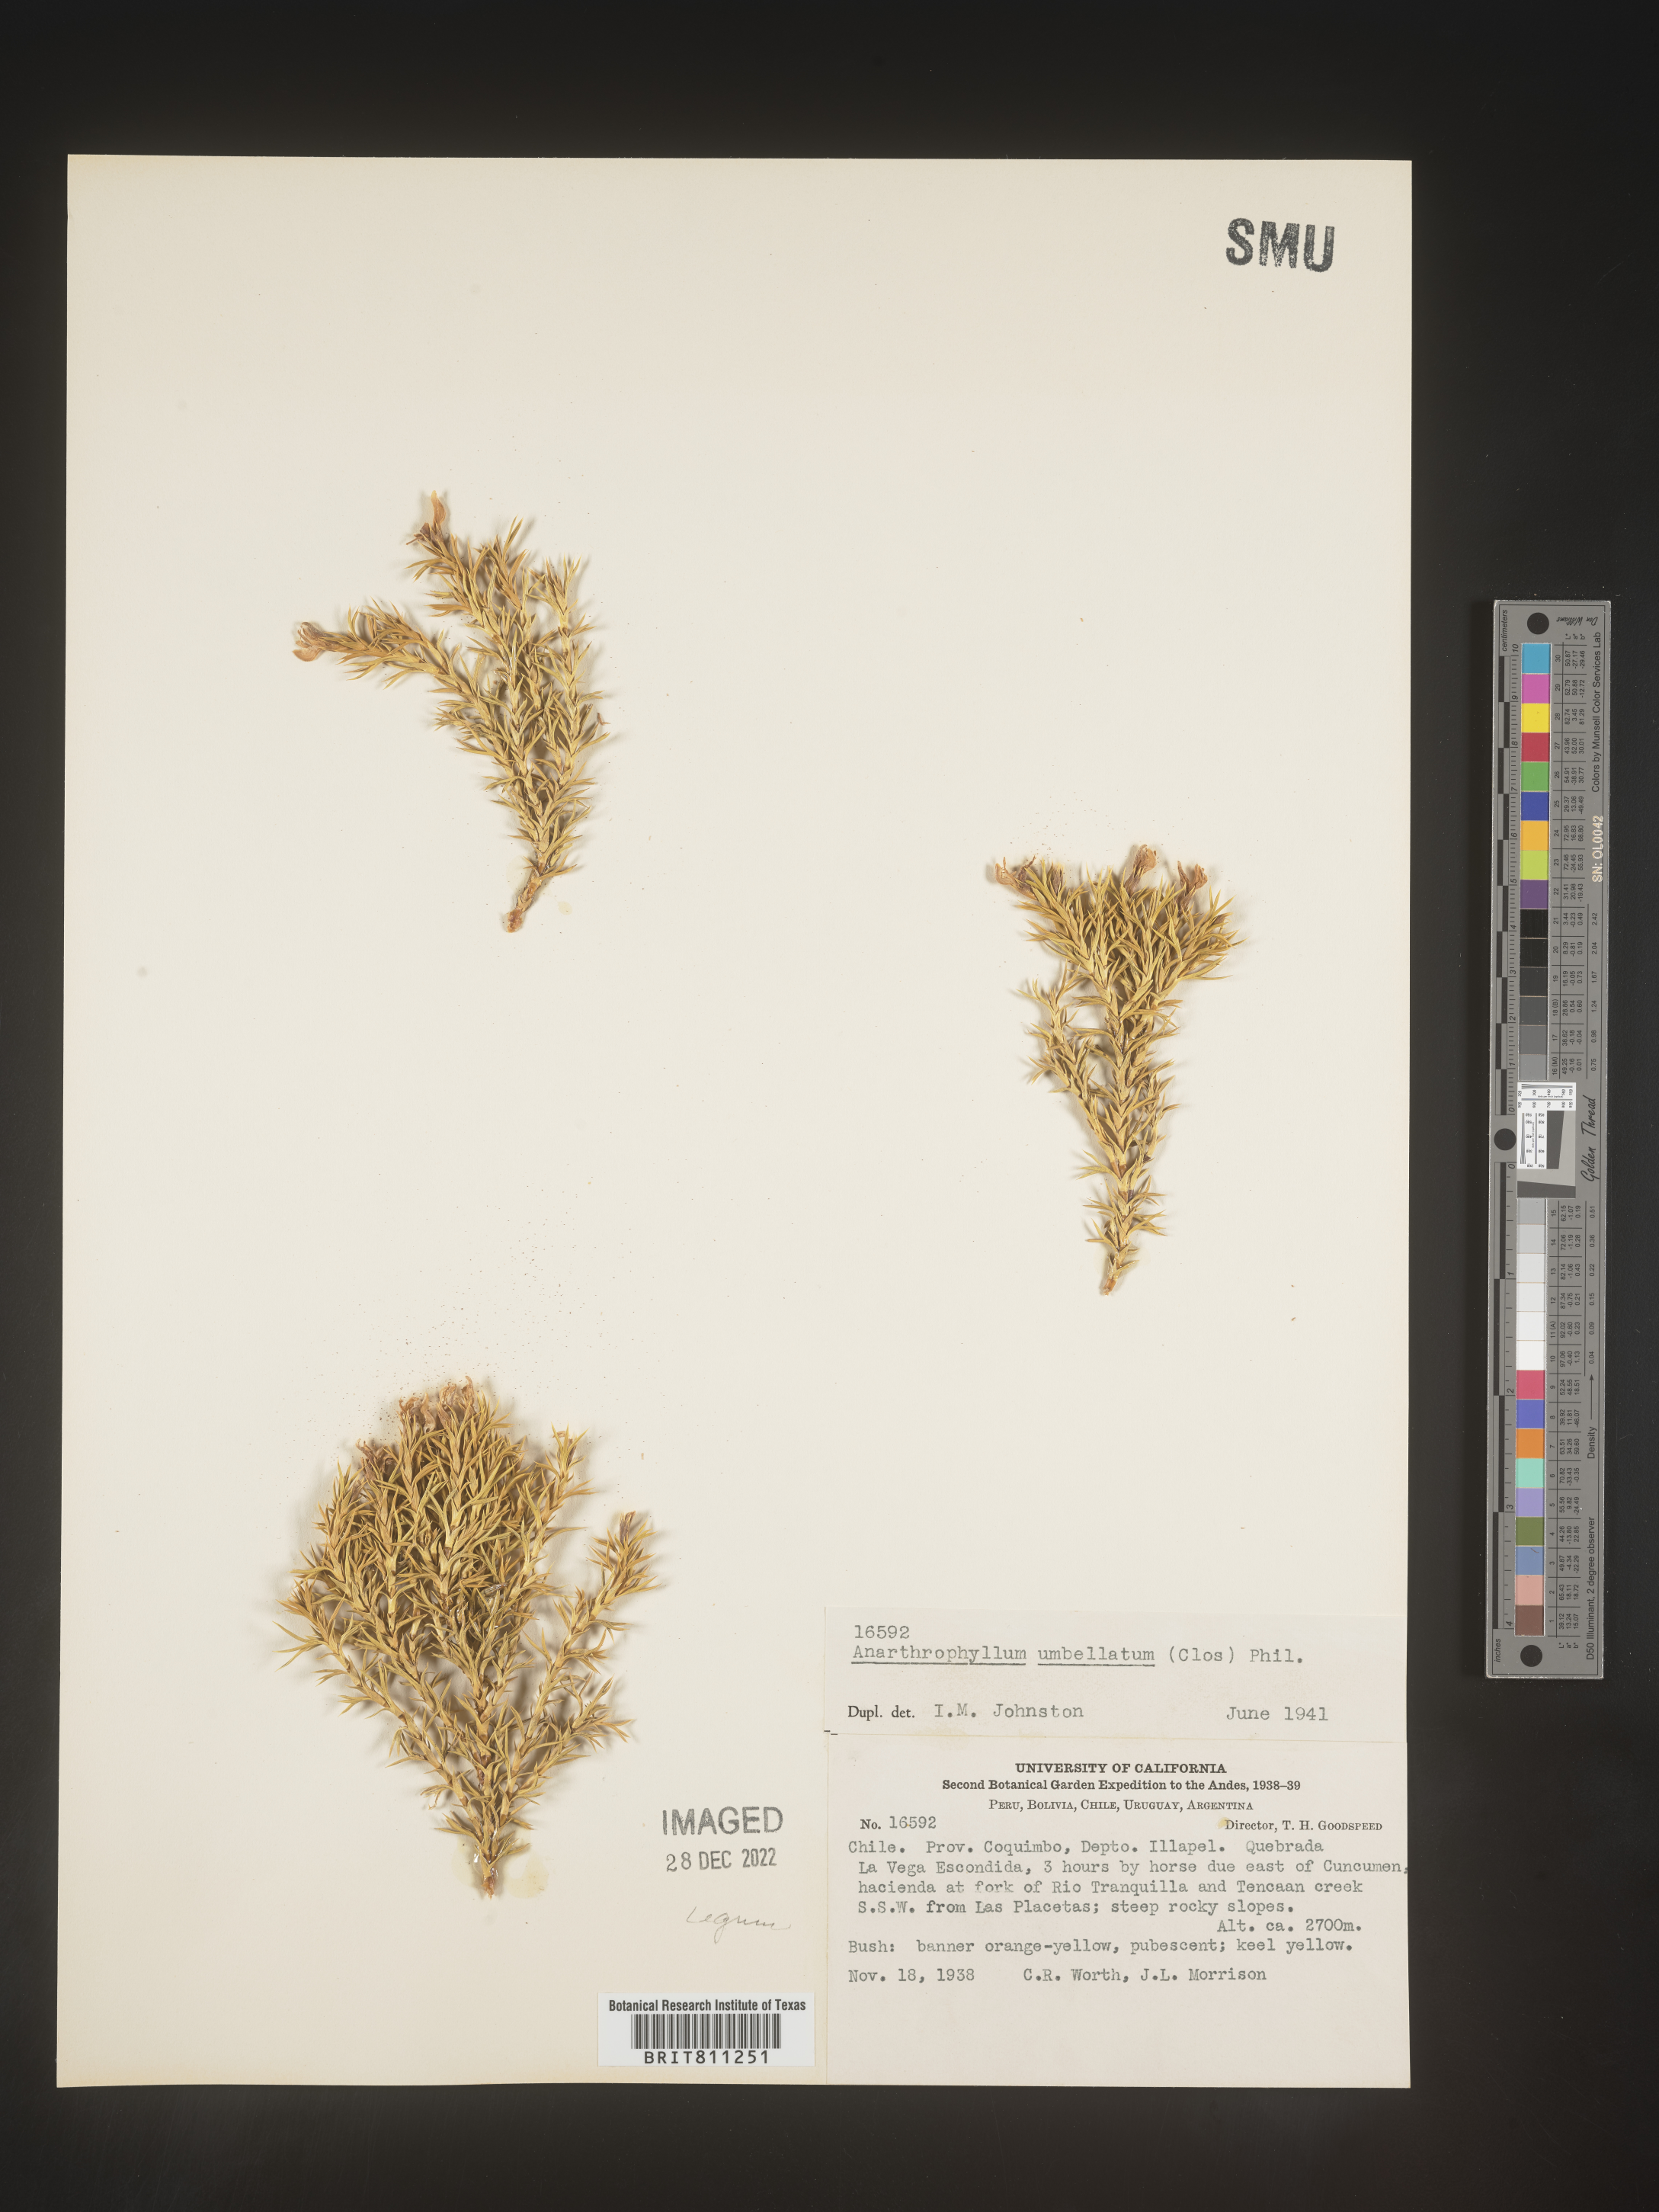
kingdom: Plantae
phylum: Tracheophyta
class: Magnoliopsida
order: Fabales
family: Fabaceae
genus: Anarthrophyllum
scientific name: Anarthrophyllum
